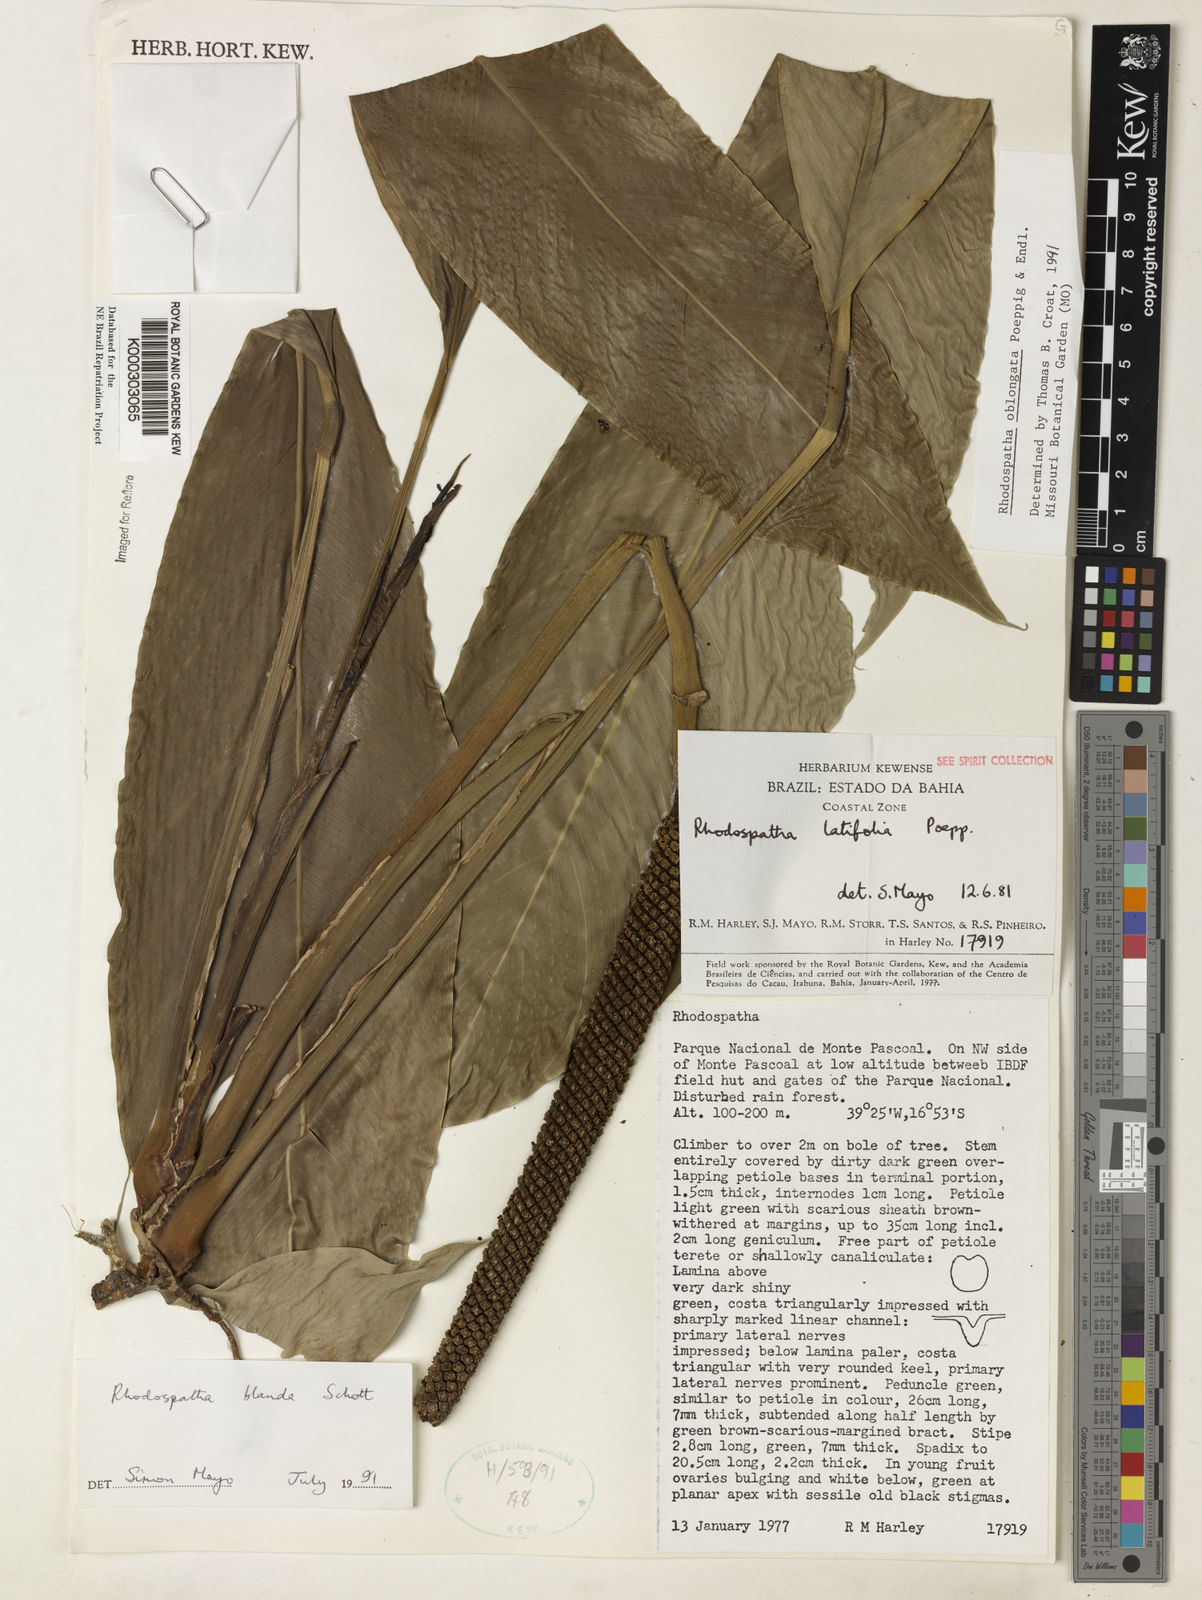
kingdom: Plantae
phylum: Tracheophyta
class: Liliopsida
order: Alismatales
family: Araceae
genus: Rhodospatha
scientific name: Rhodospatha oblongata
